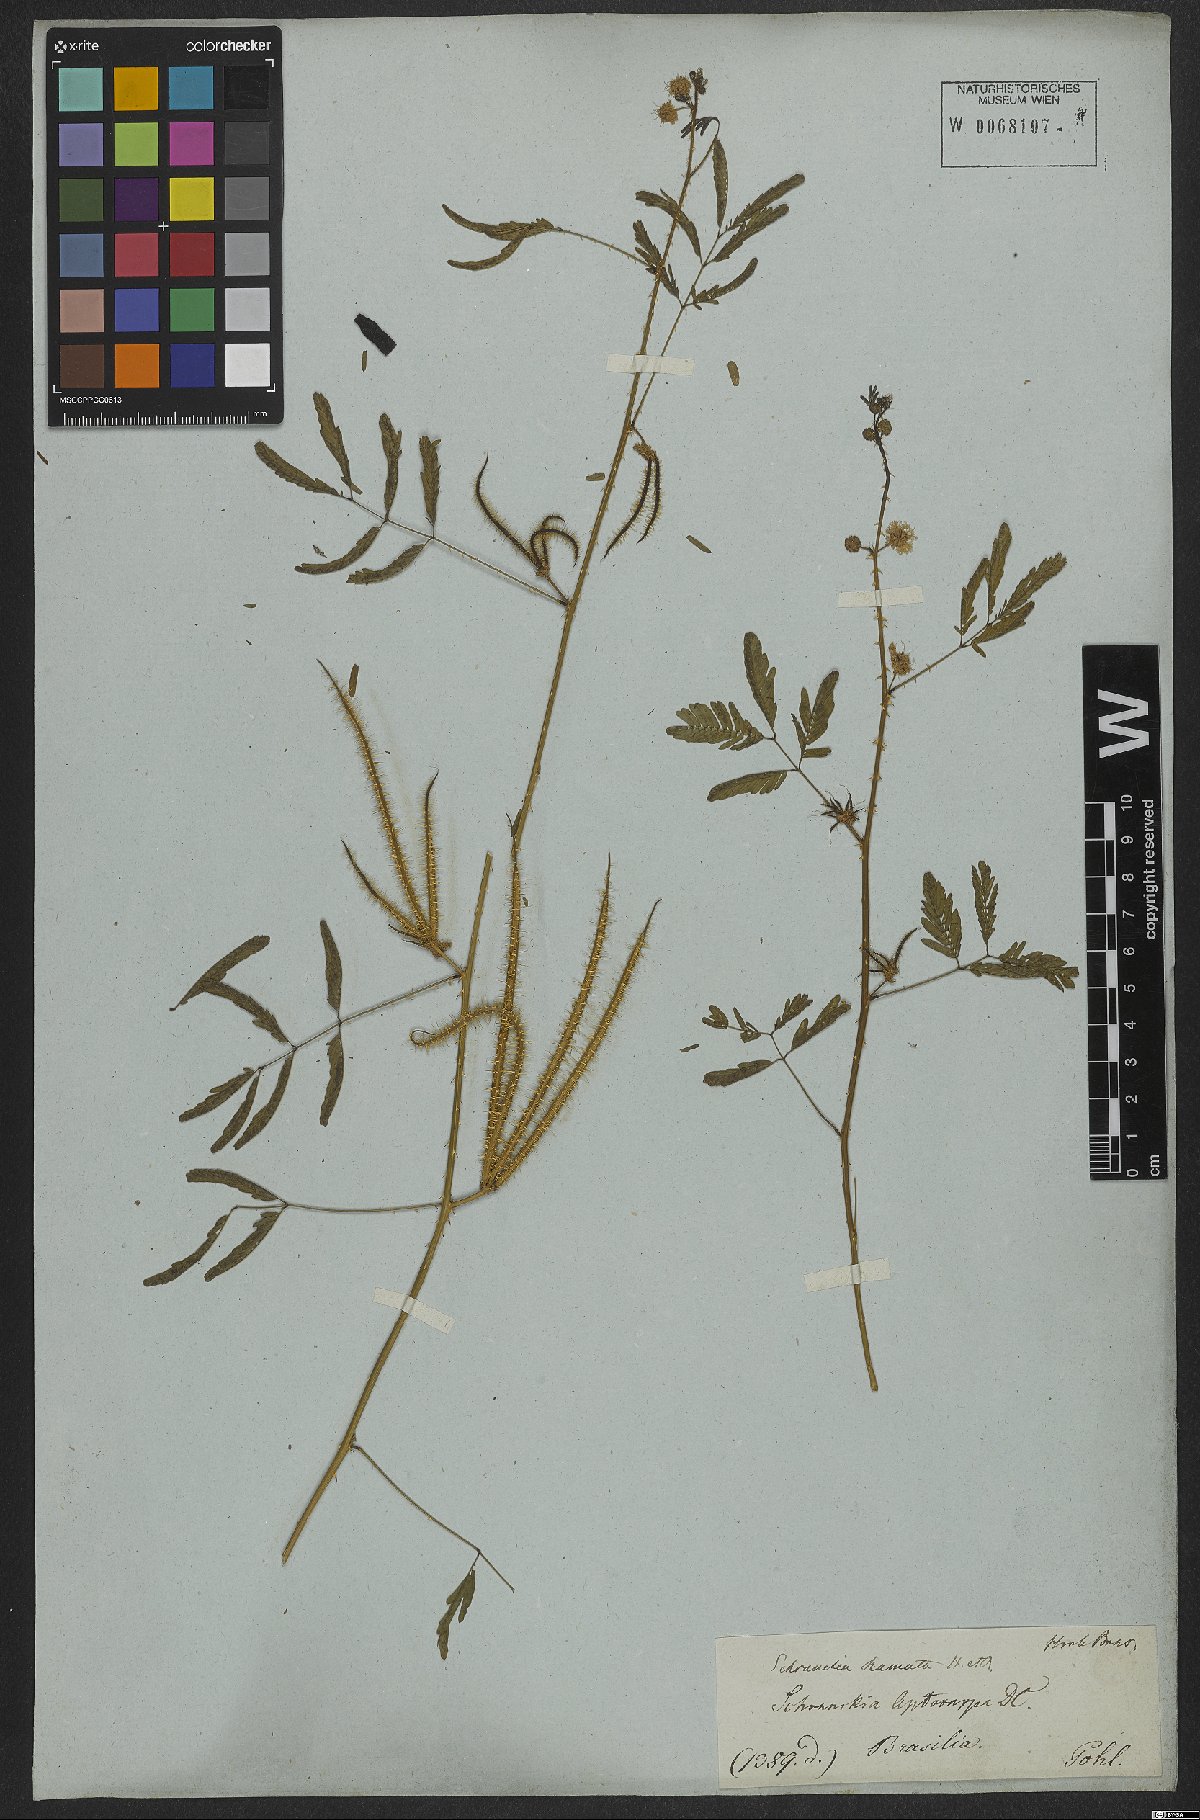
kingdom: Plantae
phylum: Tracheophyta
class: Magnoliopsida
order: Fabales
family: Fabaceae
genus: Mimosa
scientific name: Mimosa candollei
